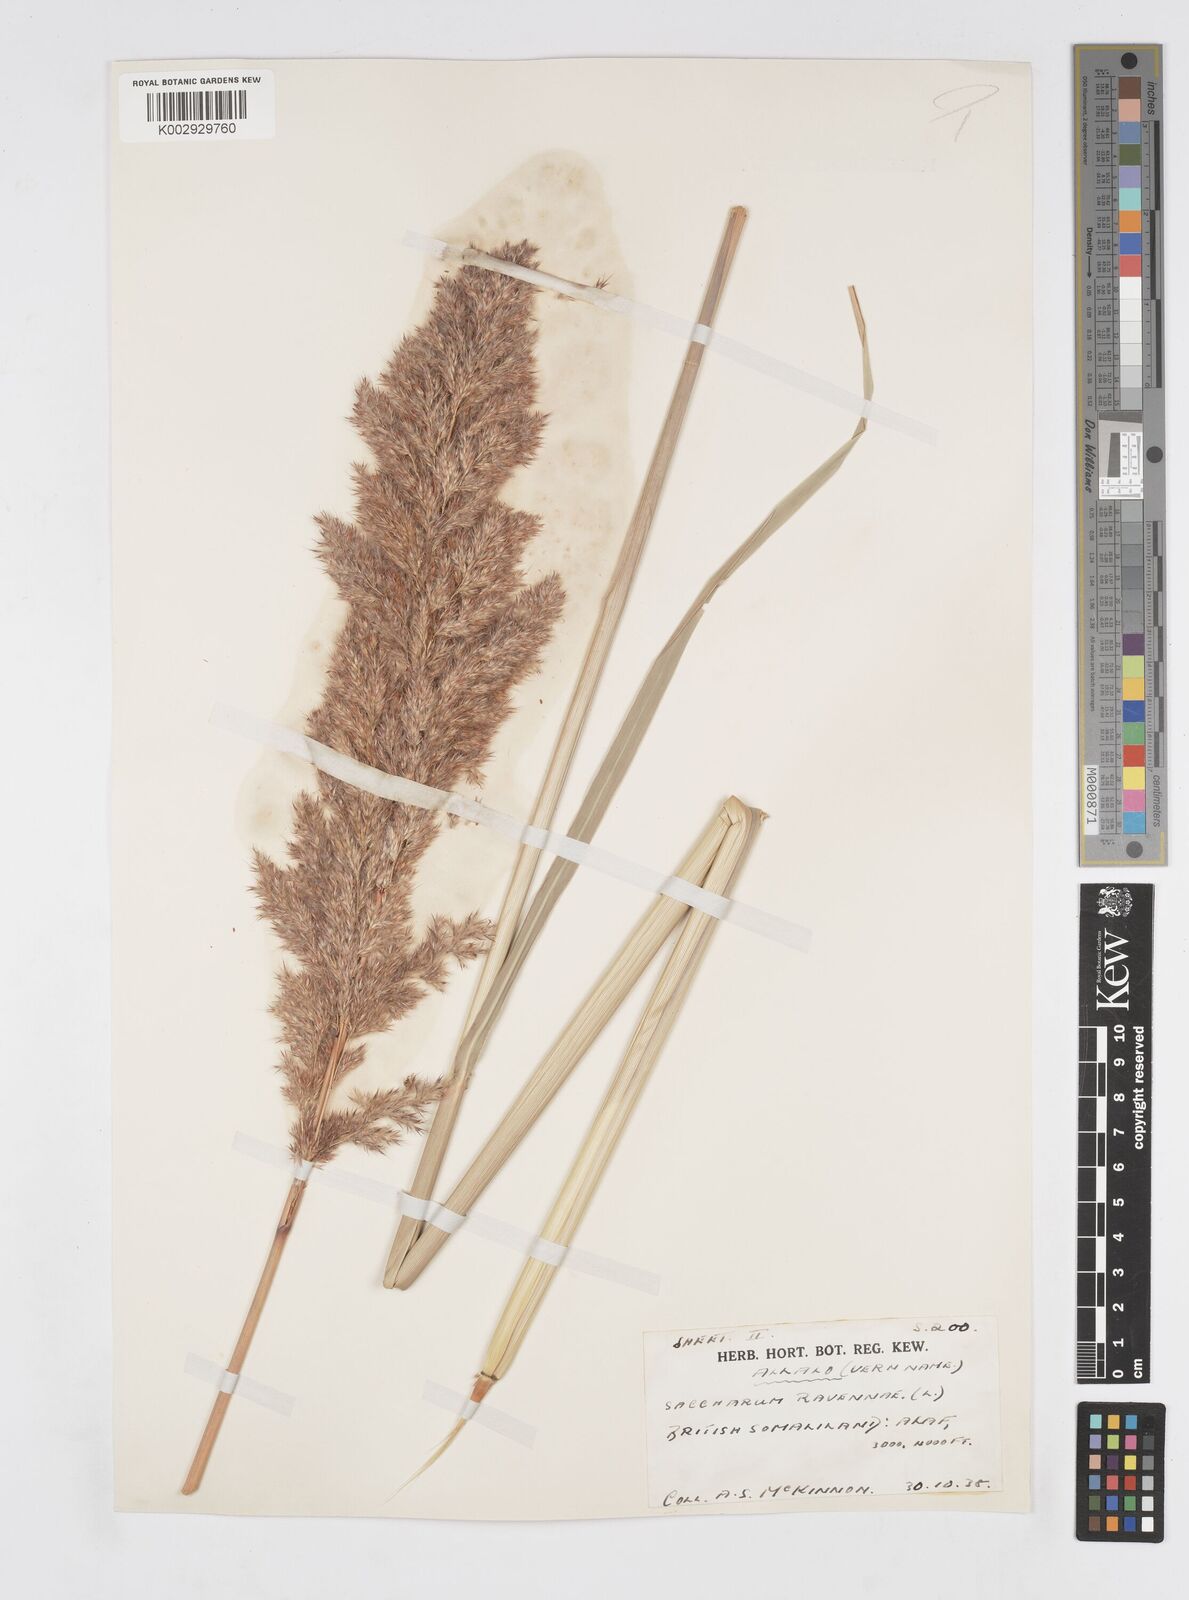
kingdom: Plantae
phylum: Tracheophyta
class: Liliopsida
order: Poales
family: Poaceae
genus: Tripidium
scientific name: Tripidium ravennae
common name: Ravenna grass
